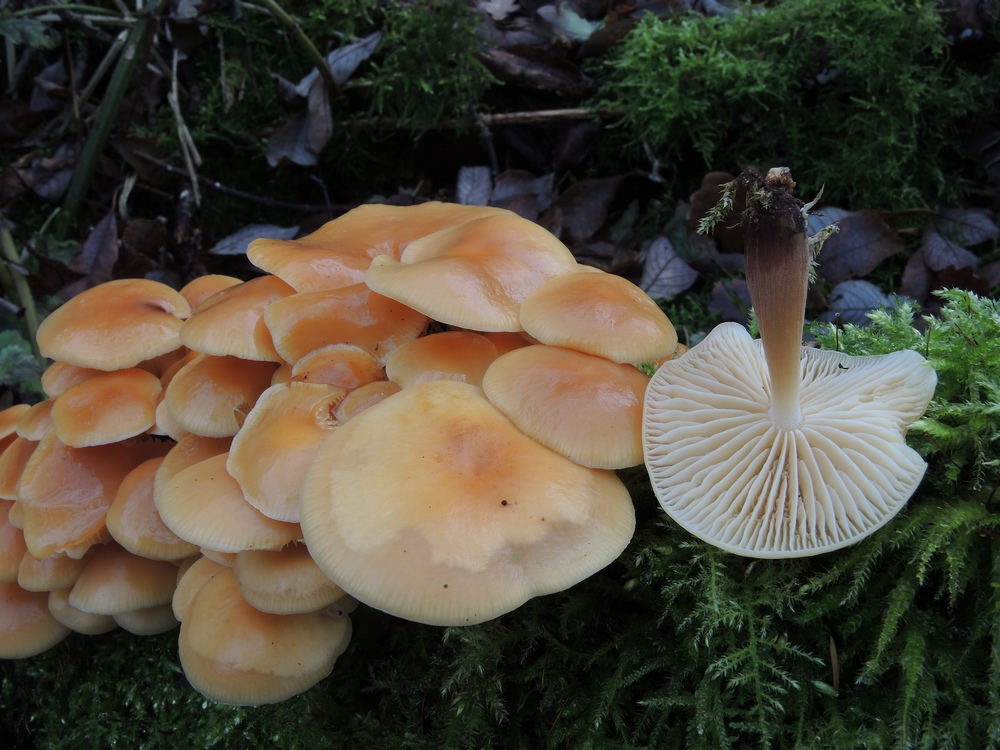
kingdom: Fungi
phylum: Basidiomycota
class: Agaricomycetes
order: Agaricales
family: Physalacriaceae
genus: Flammulina
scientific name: Flammulina elastica
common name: pile-fløjlsfod
